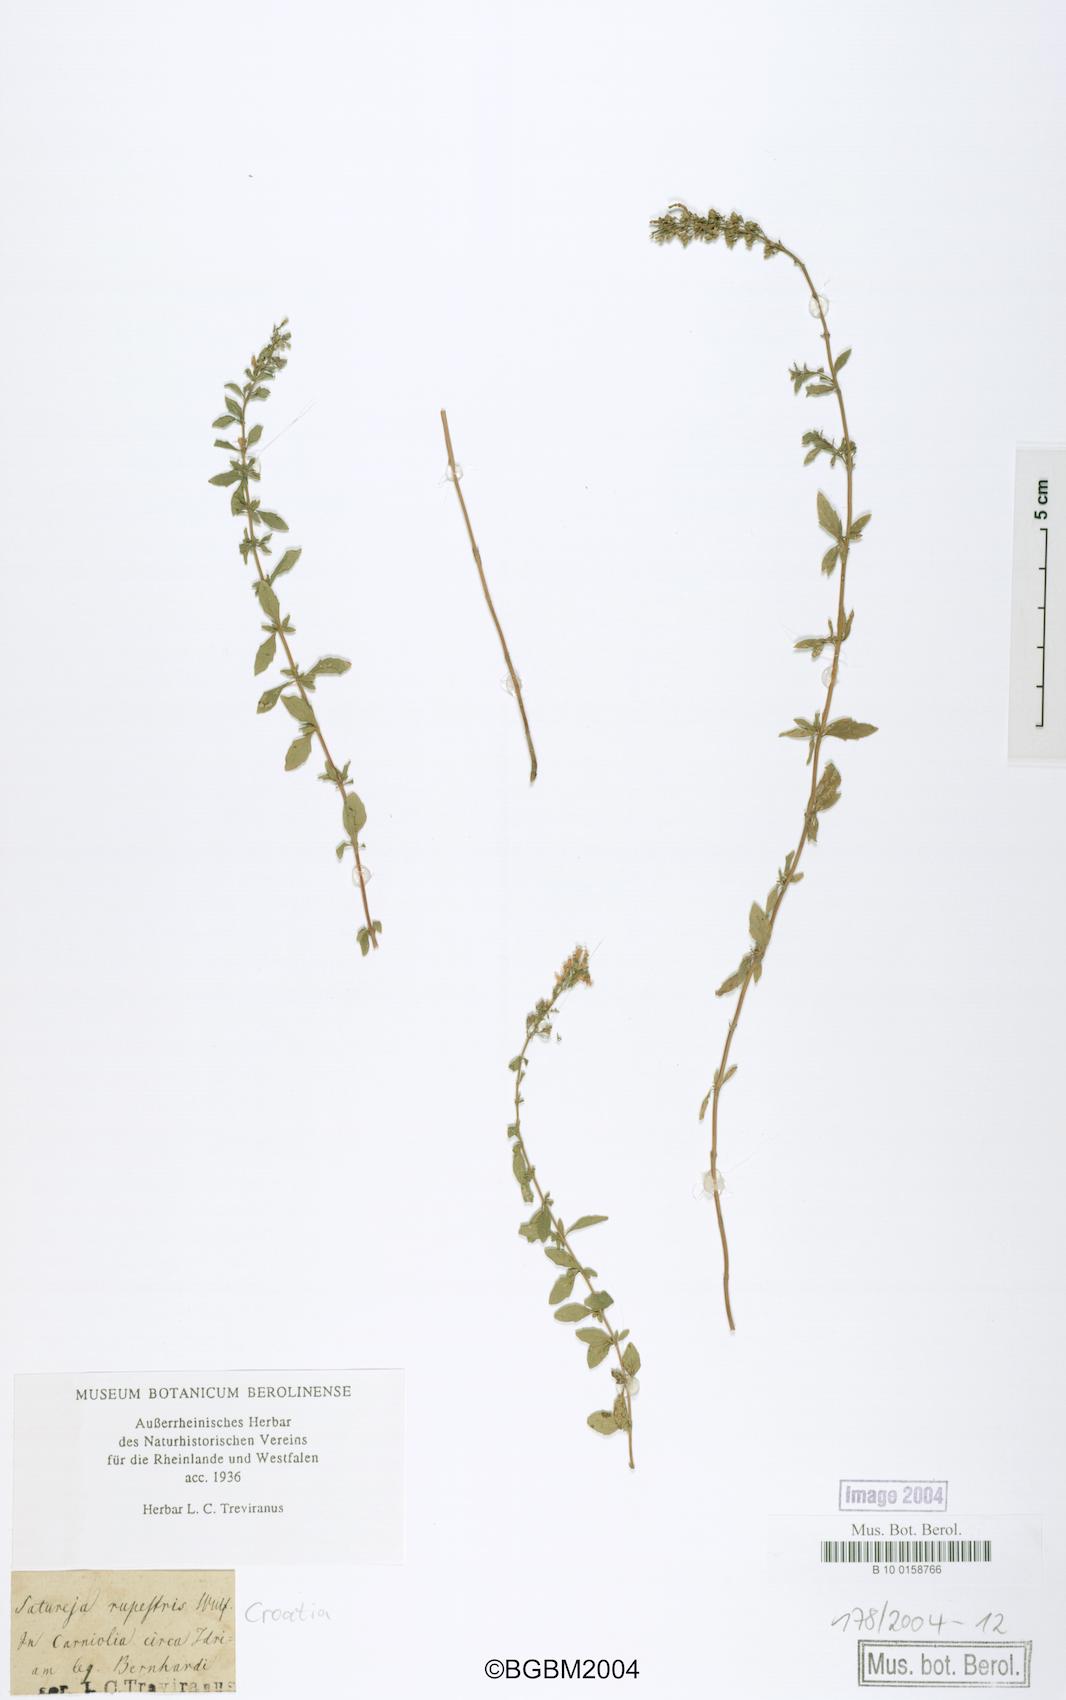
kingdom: Plantae
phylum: Tracheophyta
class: Magnoliopsida
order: Lamiales
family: Lamiaceae
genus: Clinopodium
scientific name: Clinopodium hostii
